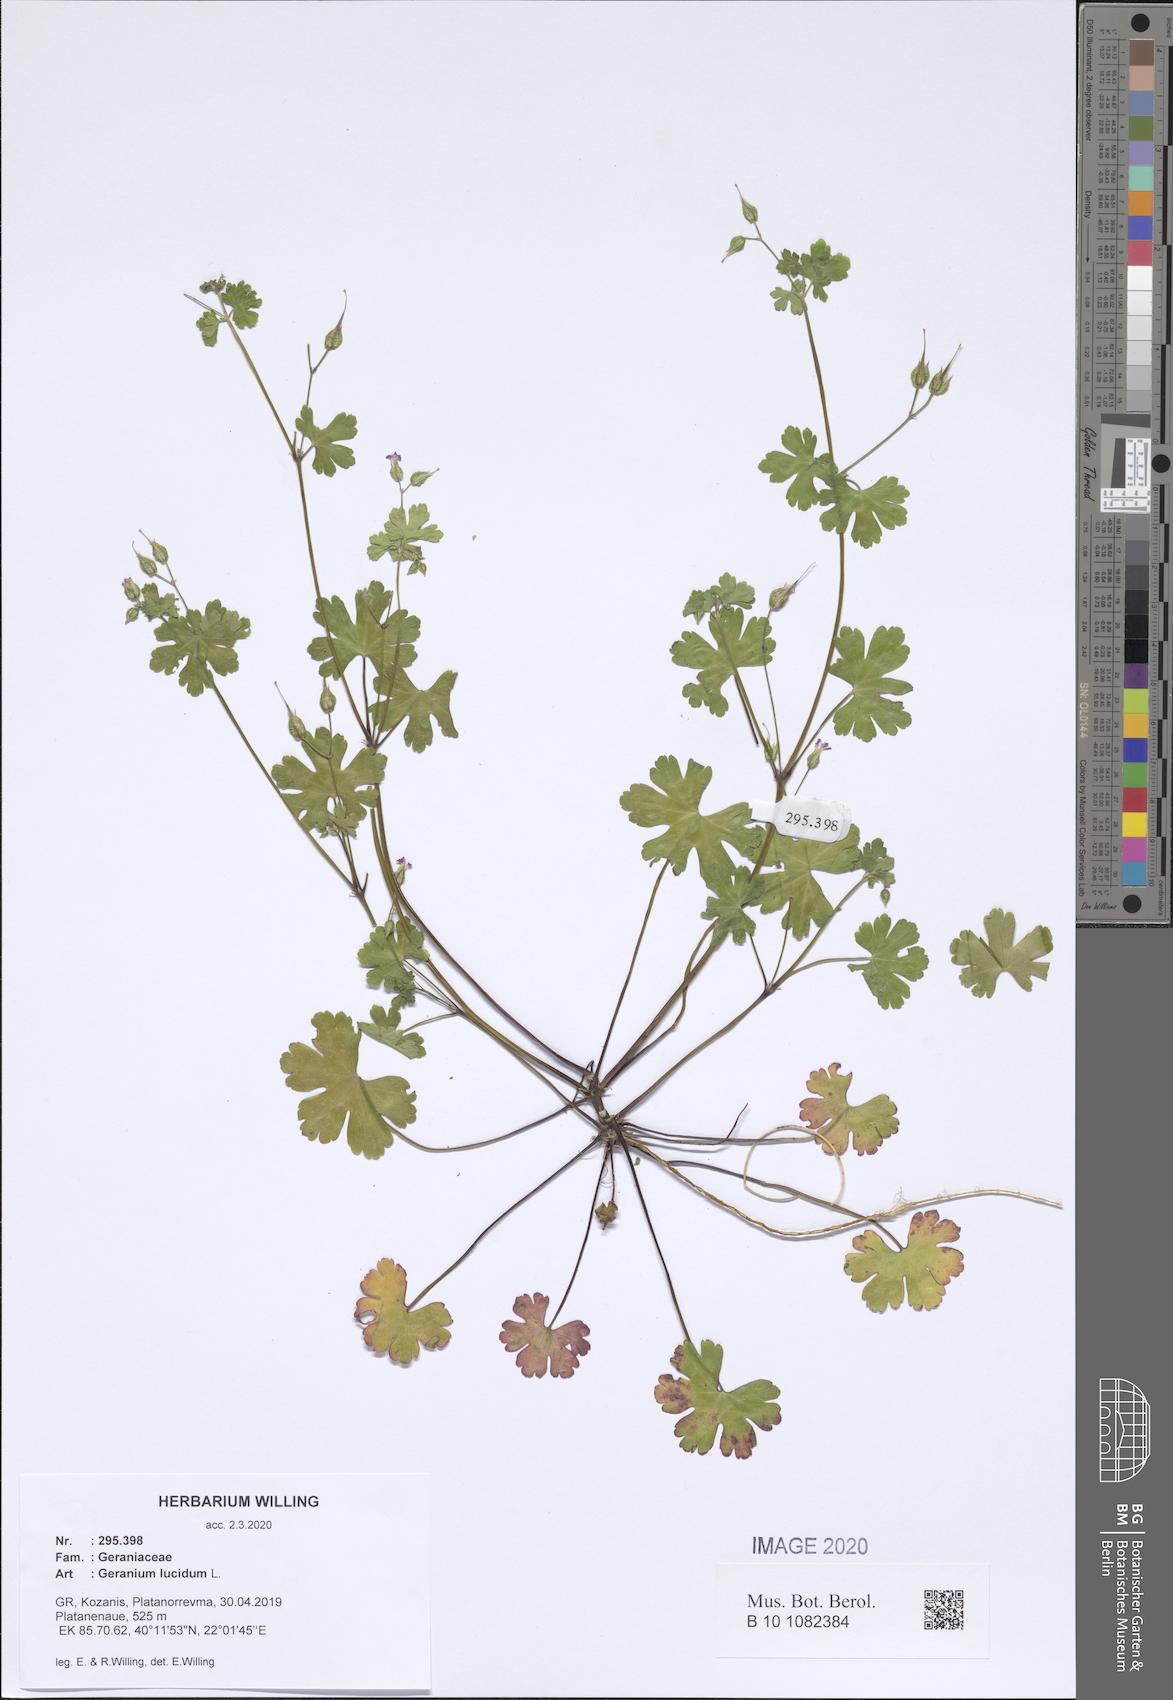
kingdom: Plantae
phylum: Tracheophyta
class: Magnoliopsida
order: Geraniales
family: Geraniaceae
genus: Geranium
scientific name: Geranium lucidum
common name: Shining crane's-bill
